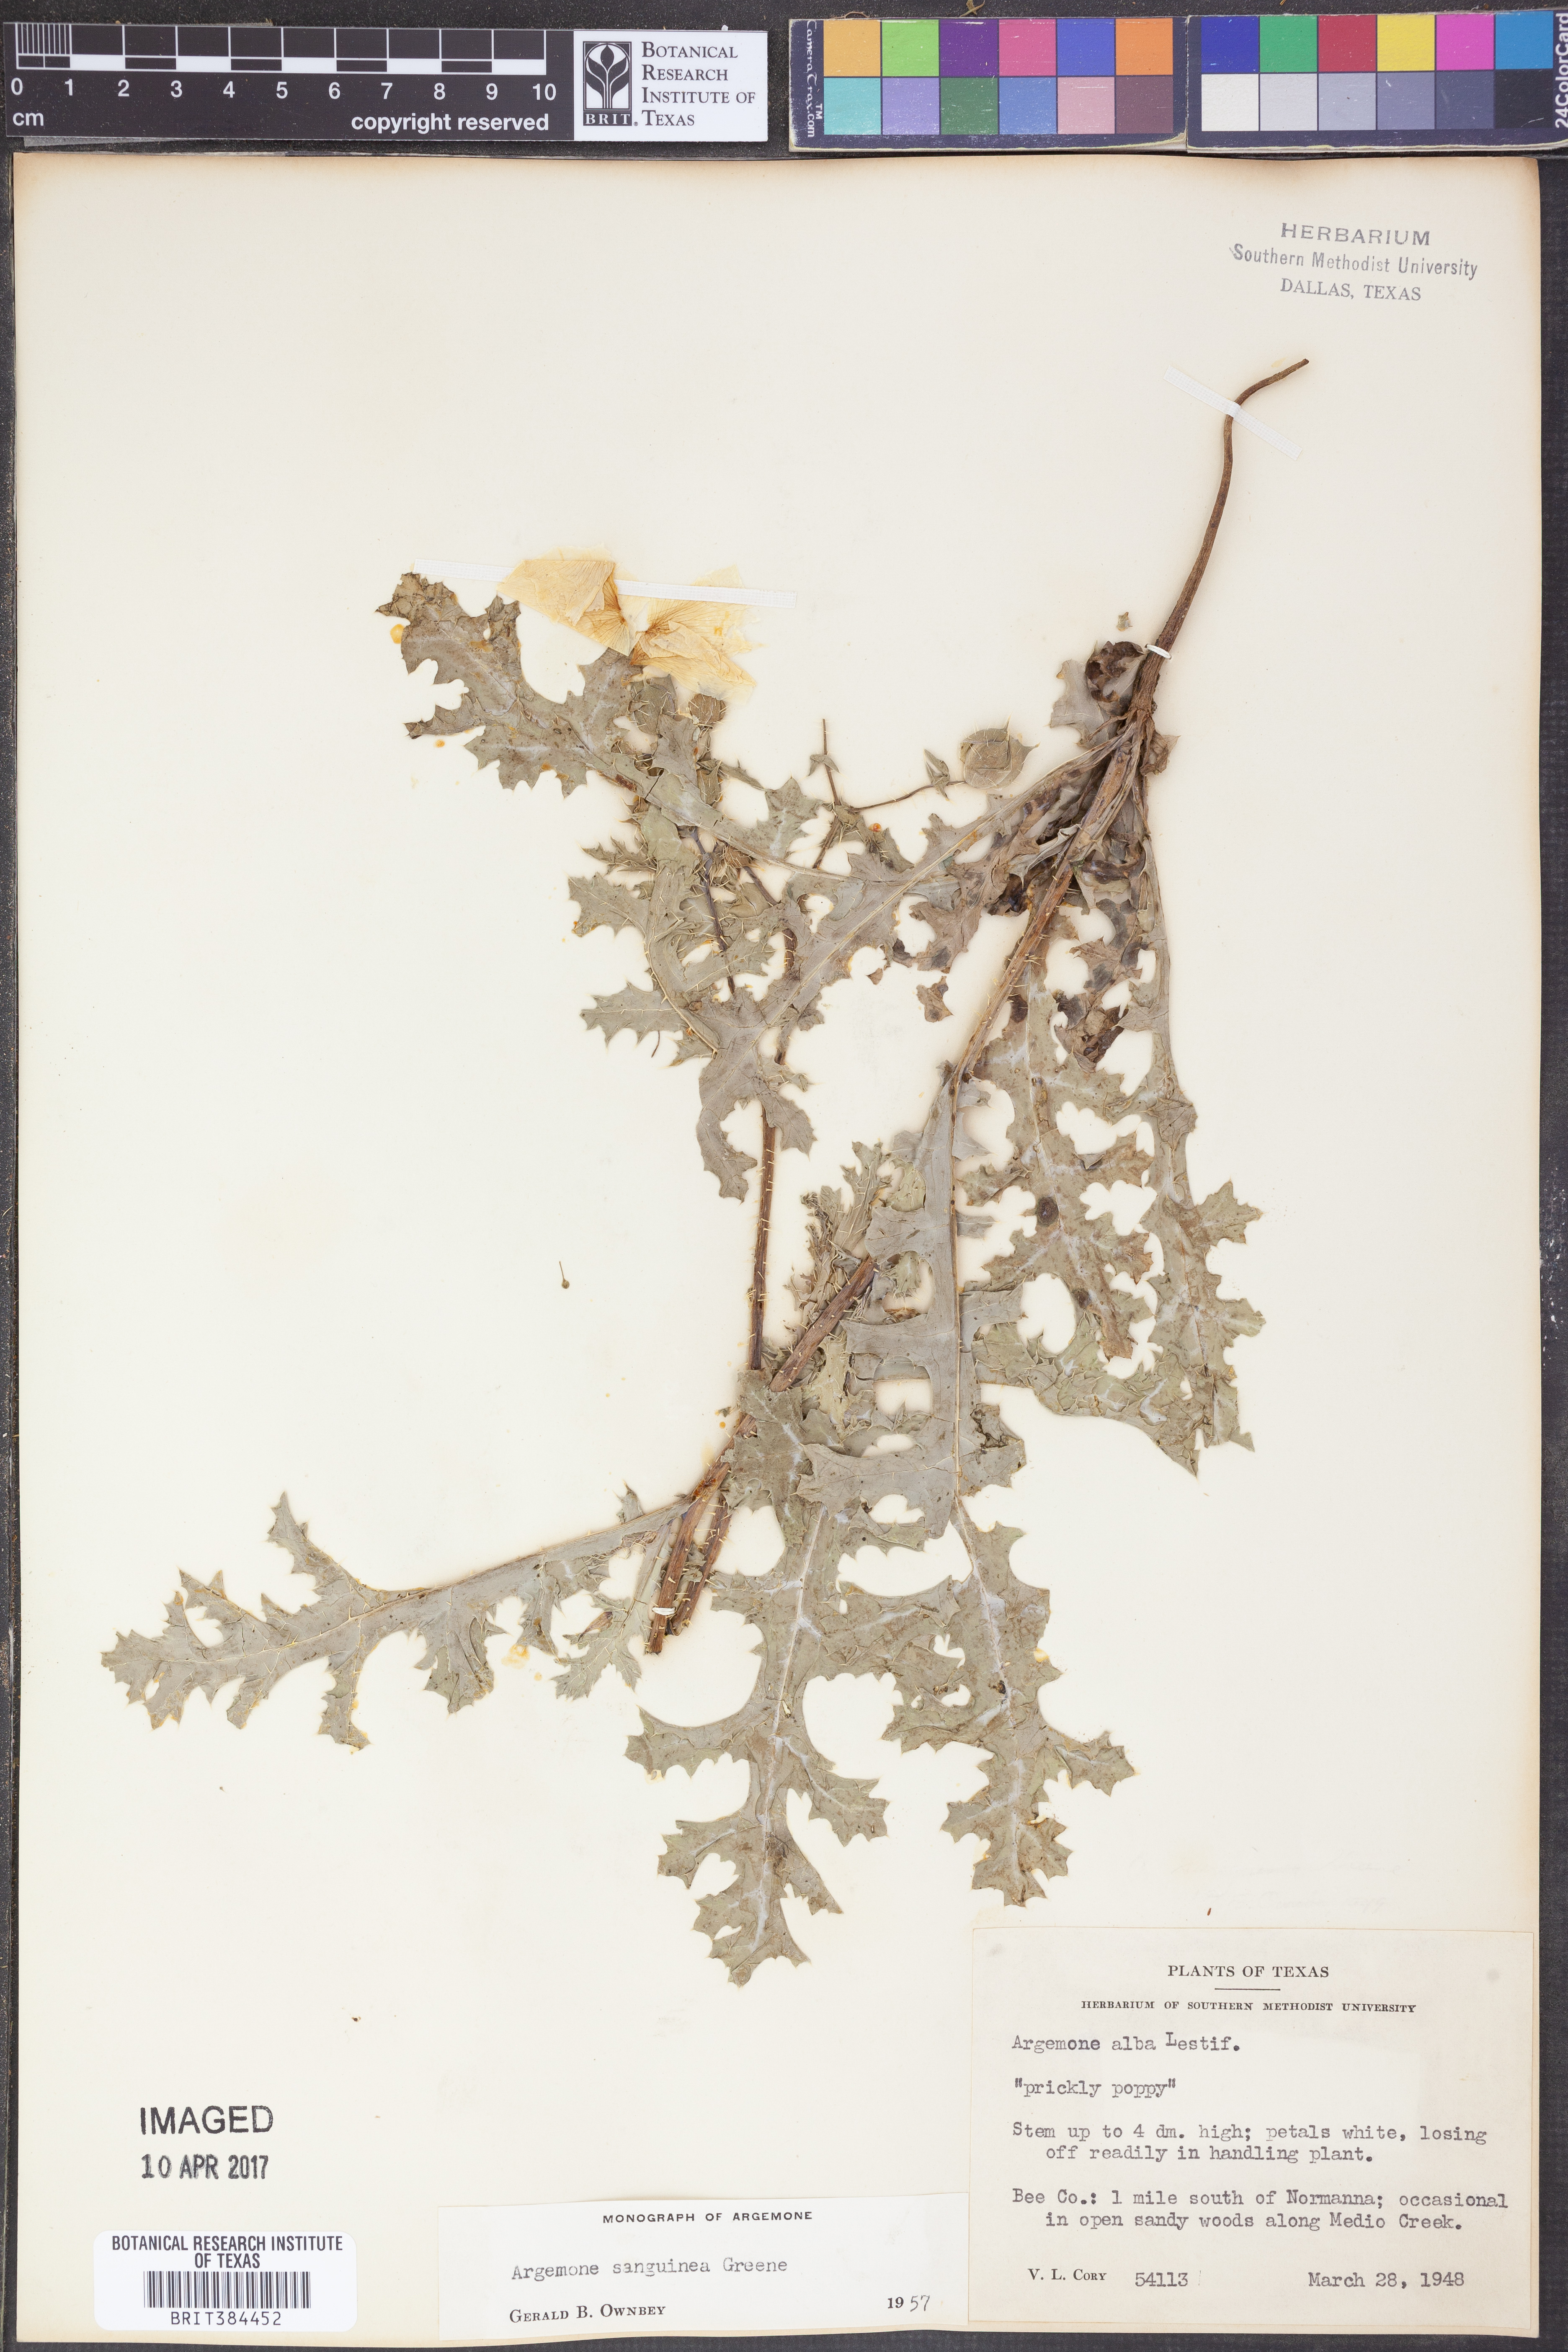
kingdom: Plantae
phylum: Tracheophyta
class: Magnoliopsida
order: Ranunculales
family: Papaveraceae
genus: Argemone
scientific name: Argemone albiflora
